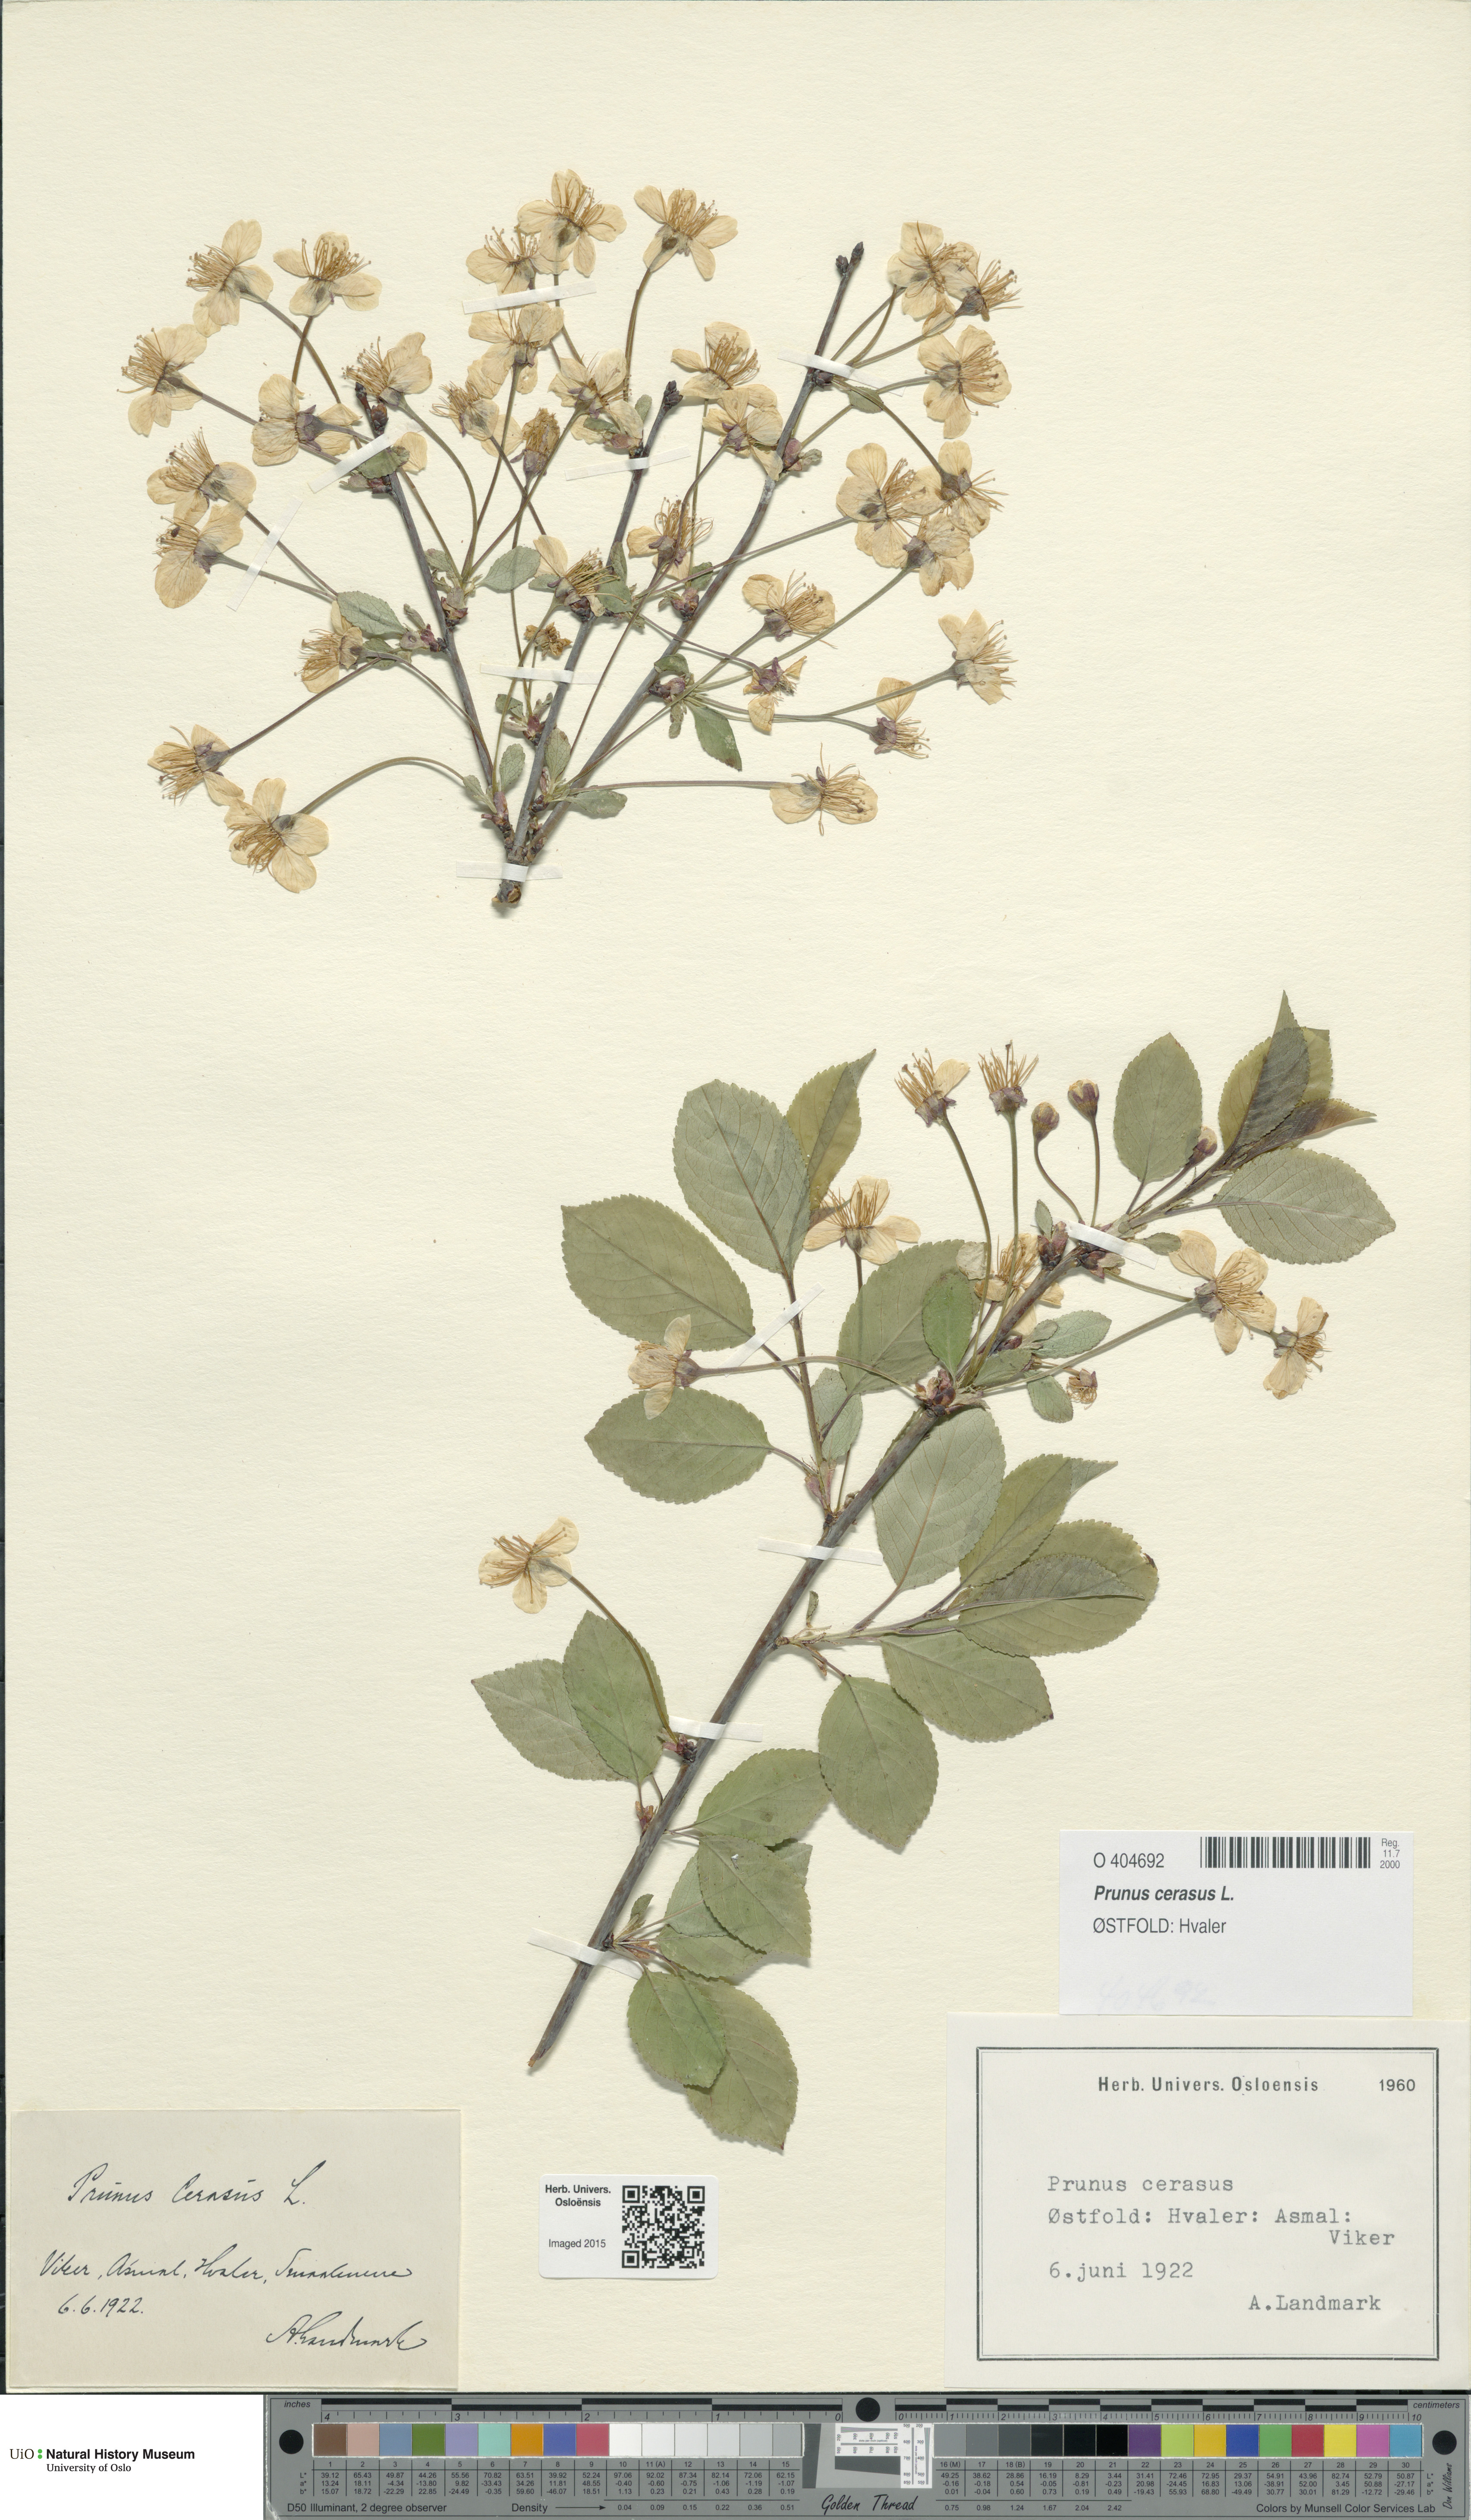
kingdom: Plantae
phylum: Tracheophyta
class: Magnoliopsida
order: Rosales
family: Rosaceae
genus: Prunus
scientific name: Prunus cerasus
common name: Morello cherry
